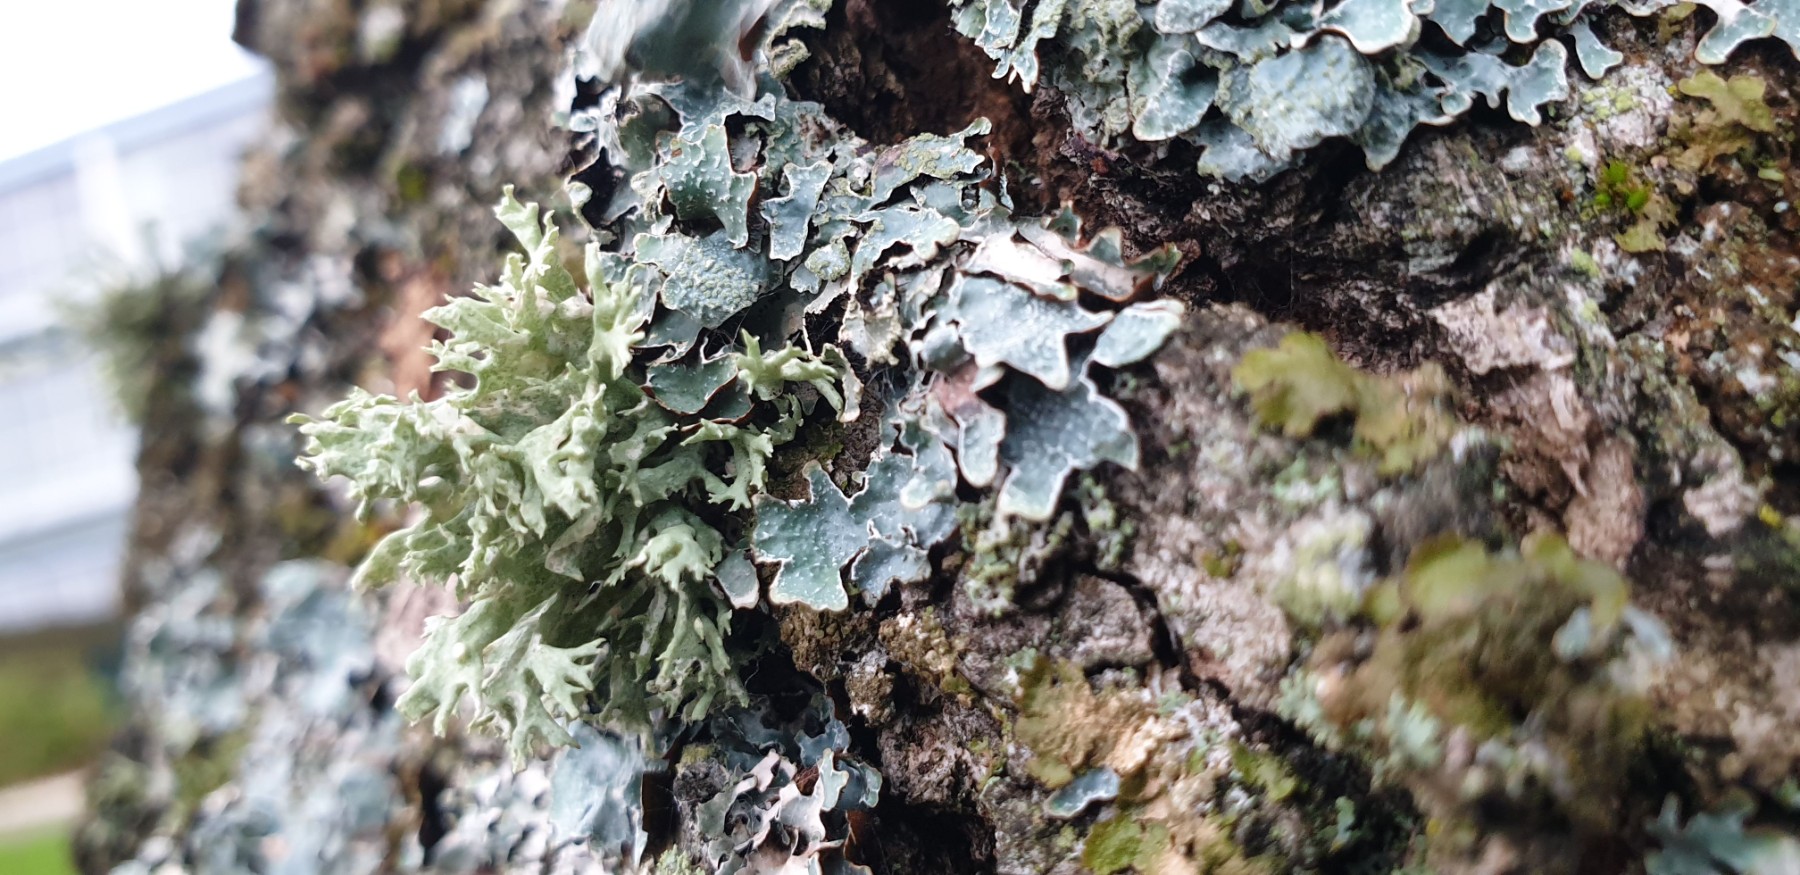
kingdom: Fungi
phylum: Ascomycota
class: Lecanoromycetes
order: Lecanorales
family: Ramalinaceae
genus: Ramalina
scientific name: Ramalina fastigiata
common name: tue-grenlav
